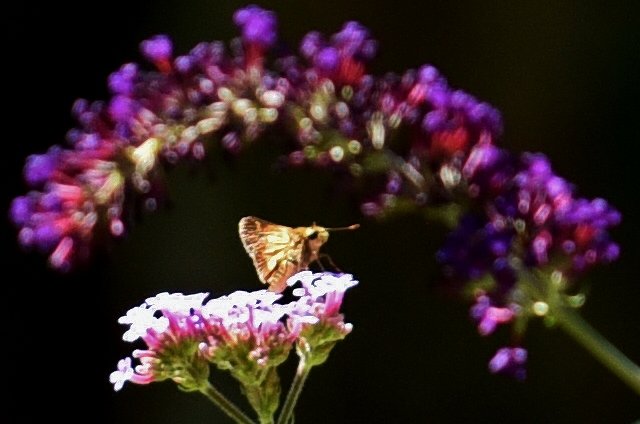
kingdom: Animalia
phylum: Arthropoda
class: Insecta
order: Lepidoptera
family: Hesperiidae
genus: Polites
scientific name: Polites coras
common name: Peck's Skipper
